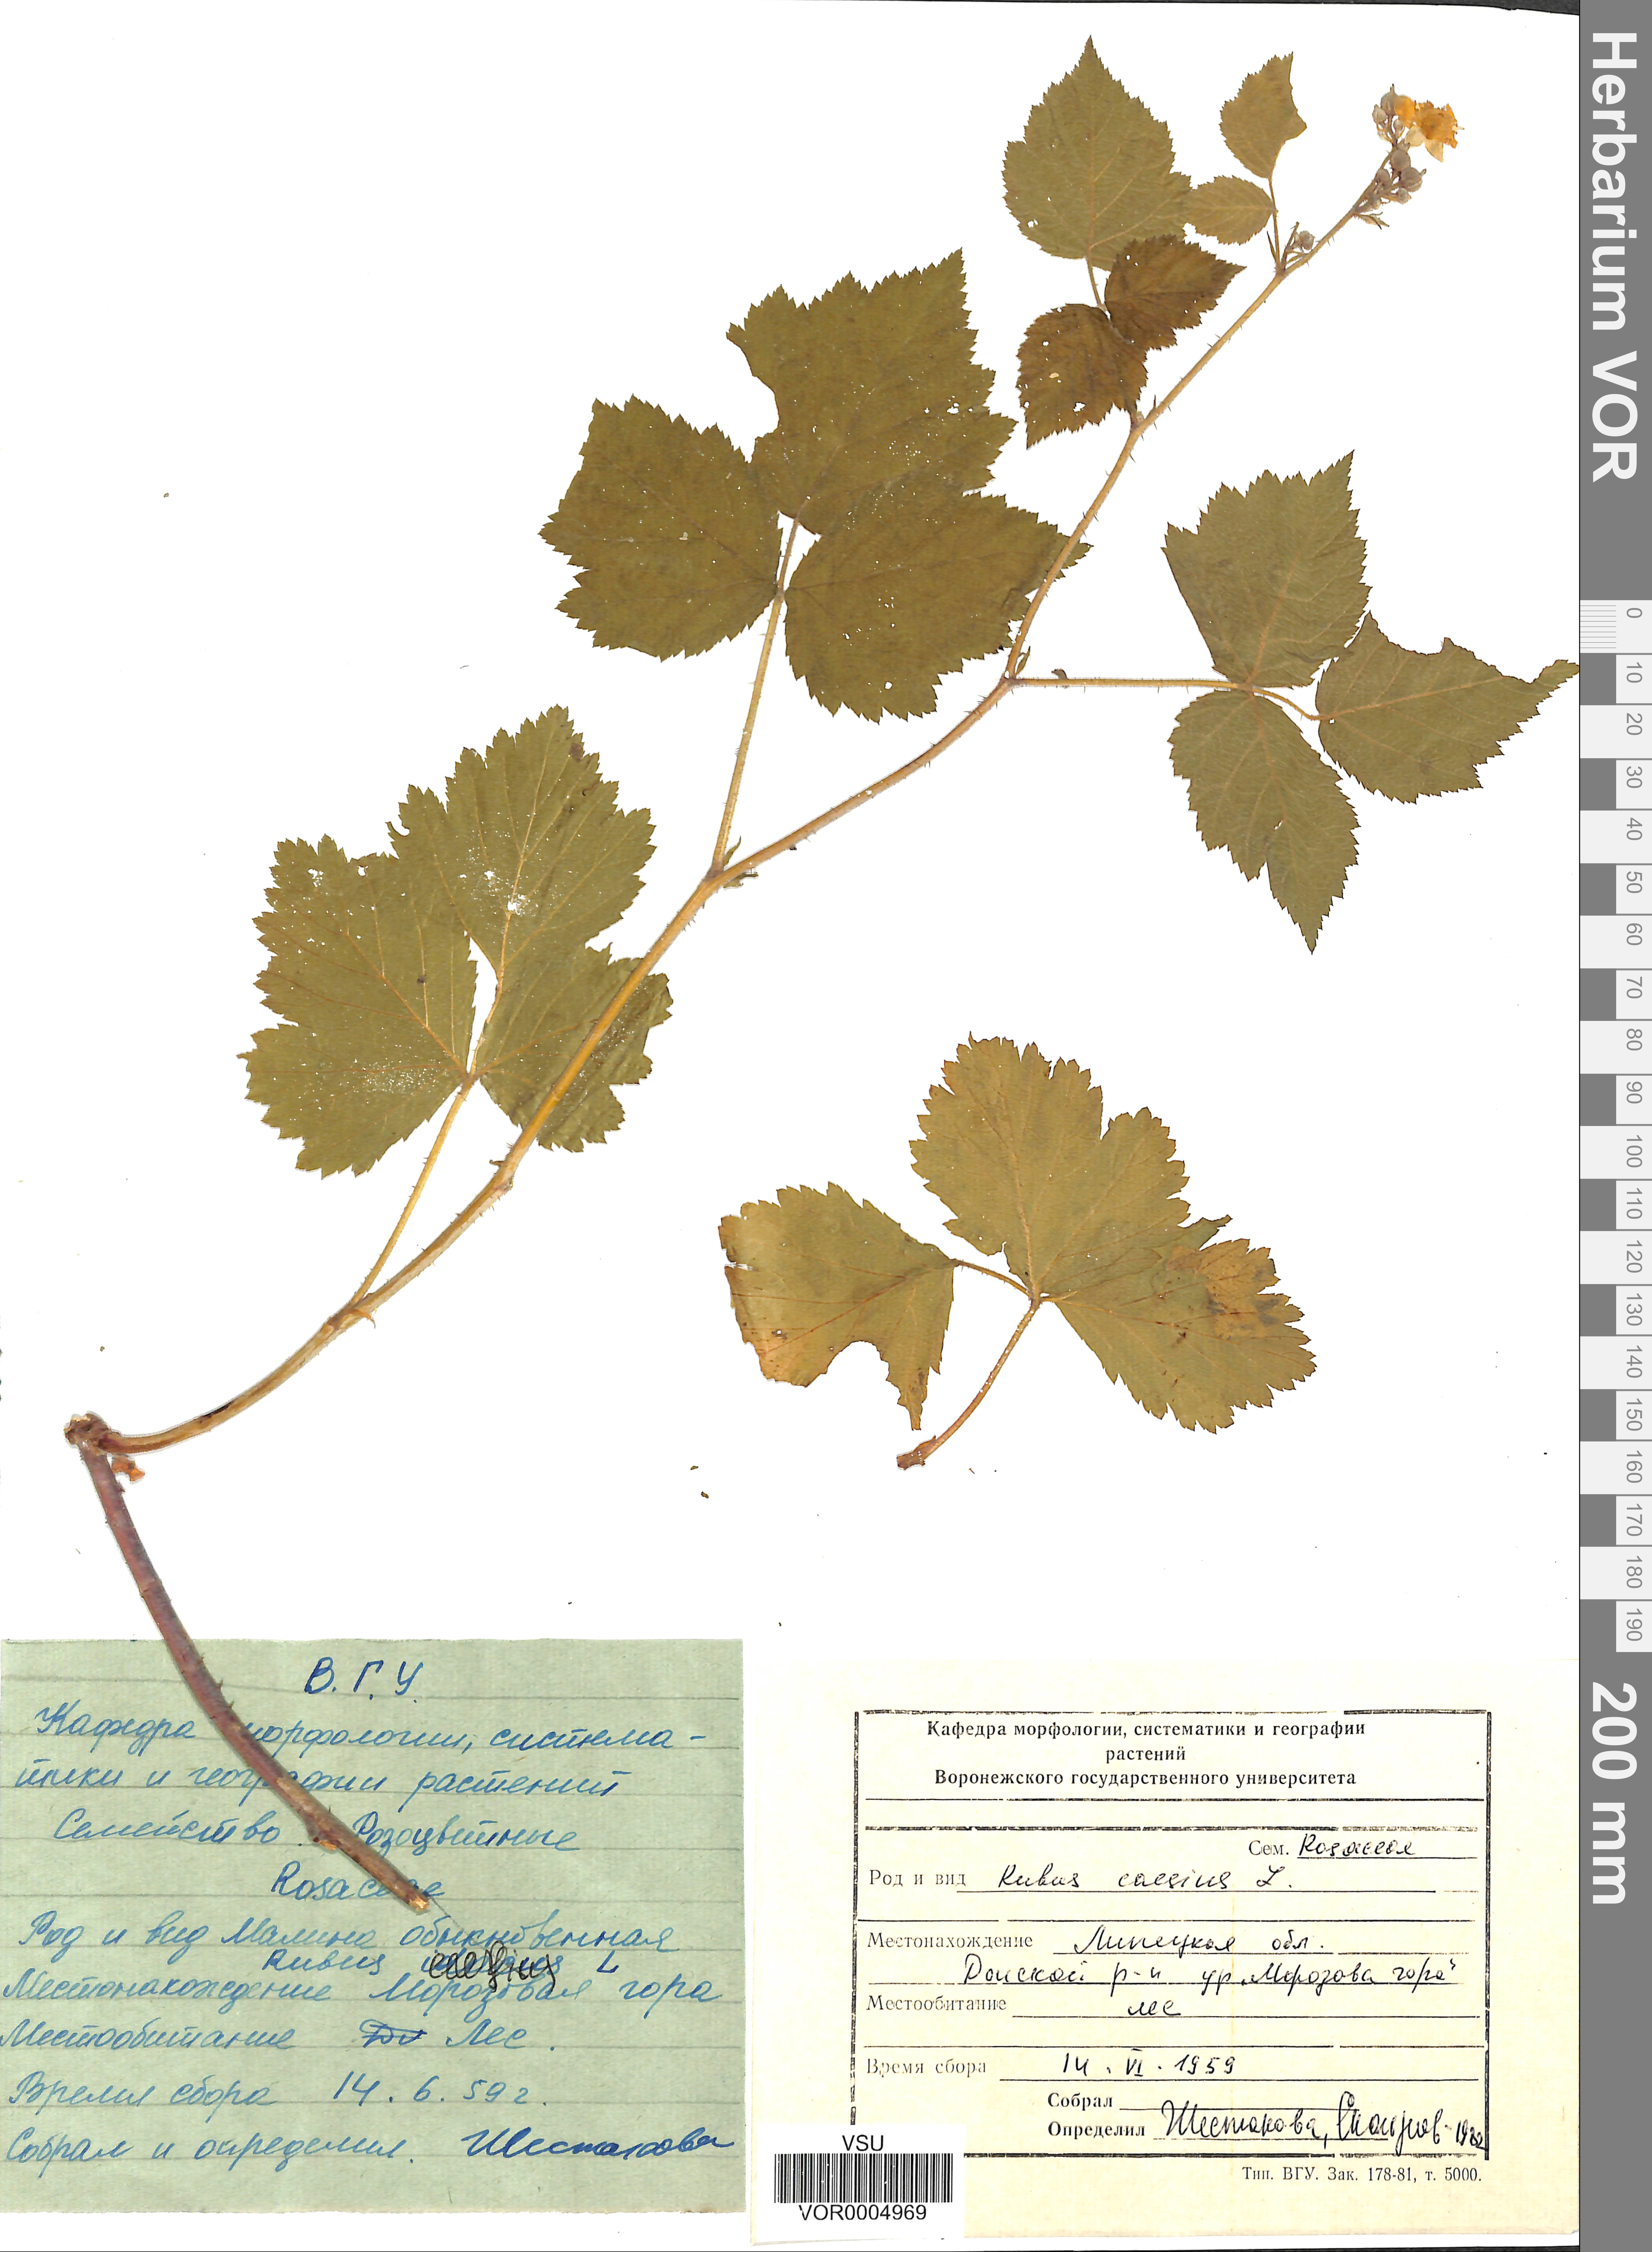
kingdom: Plantae
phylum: Tracheophyta
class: Magnoliopsida
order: Rosales
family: Rosaceae
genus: Rubus
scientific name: Rubus caesius
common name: Dewberry
